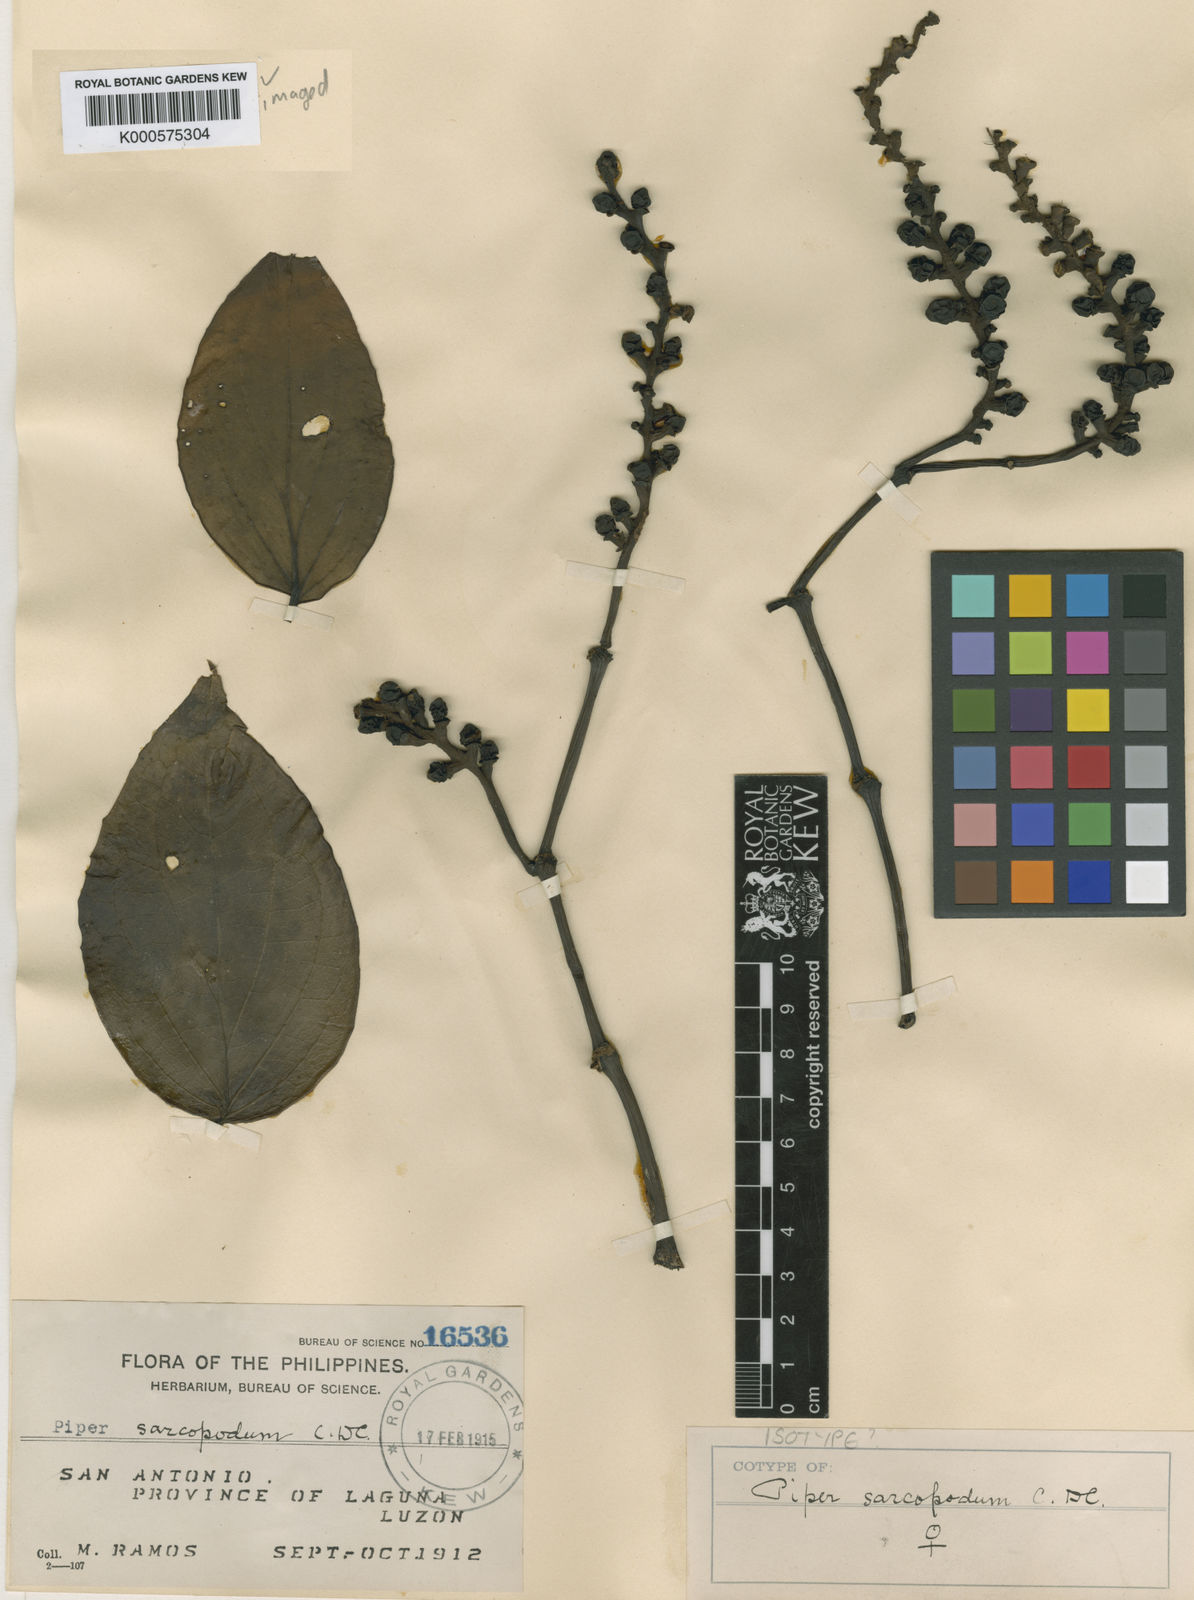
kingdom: Plantae
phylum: Tracheophyta
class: Magnoliopsida
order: Piperales
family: Piperaceae
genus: Piper
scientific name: Piper baccatum
